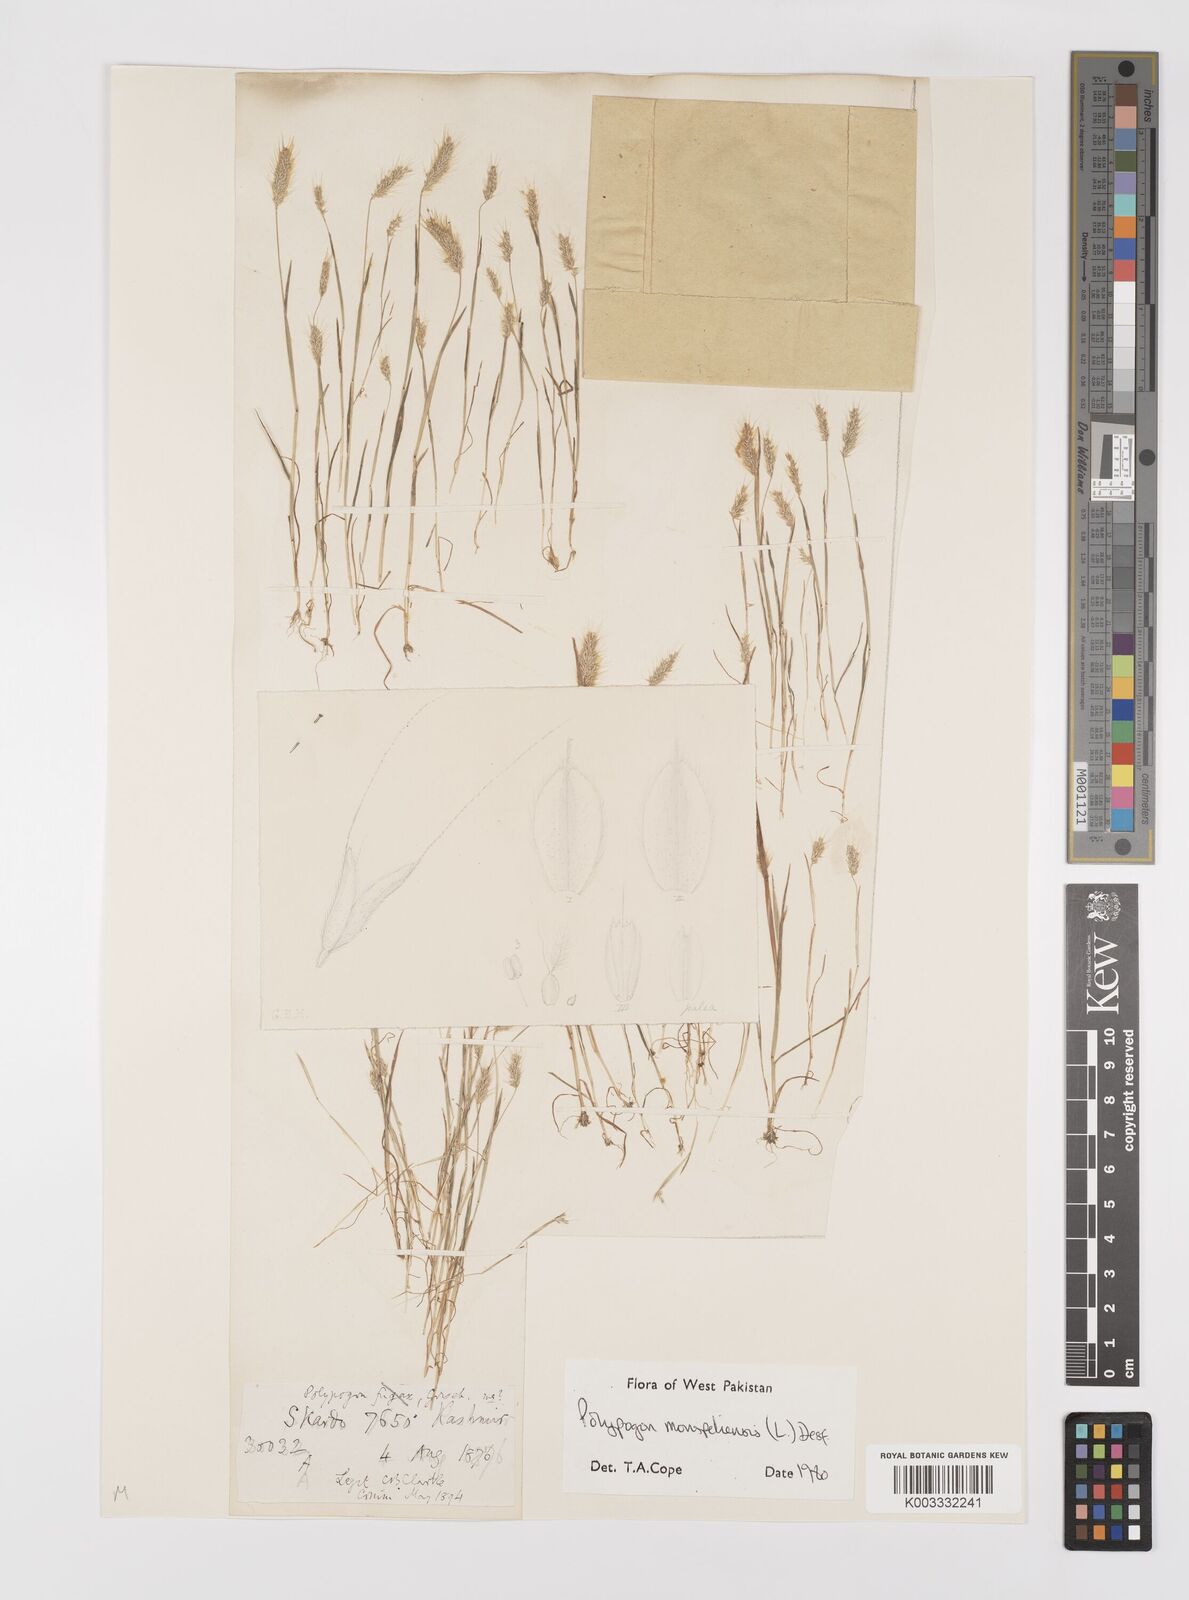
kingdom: Plantae
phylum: Tracheophyta
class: Liliopsida
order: Poales
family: Poaceae
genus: Polypogon
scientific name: Polypogon monspeliensis
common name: Annual rabbitsfoot grass
